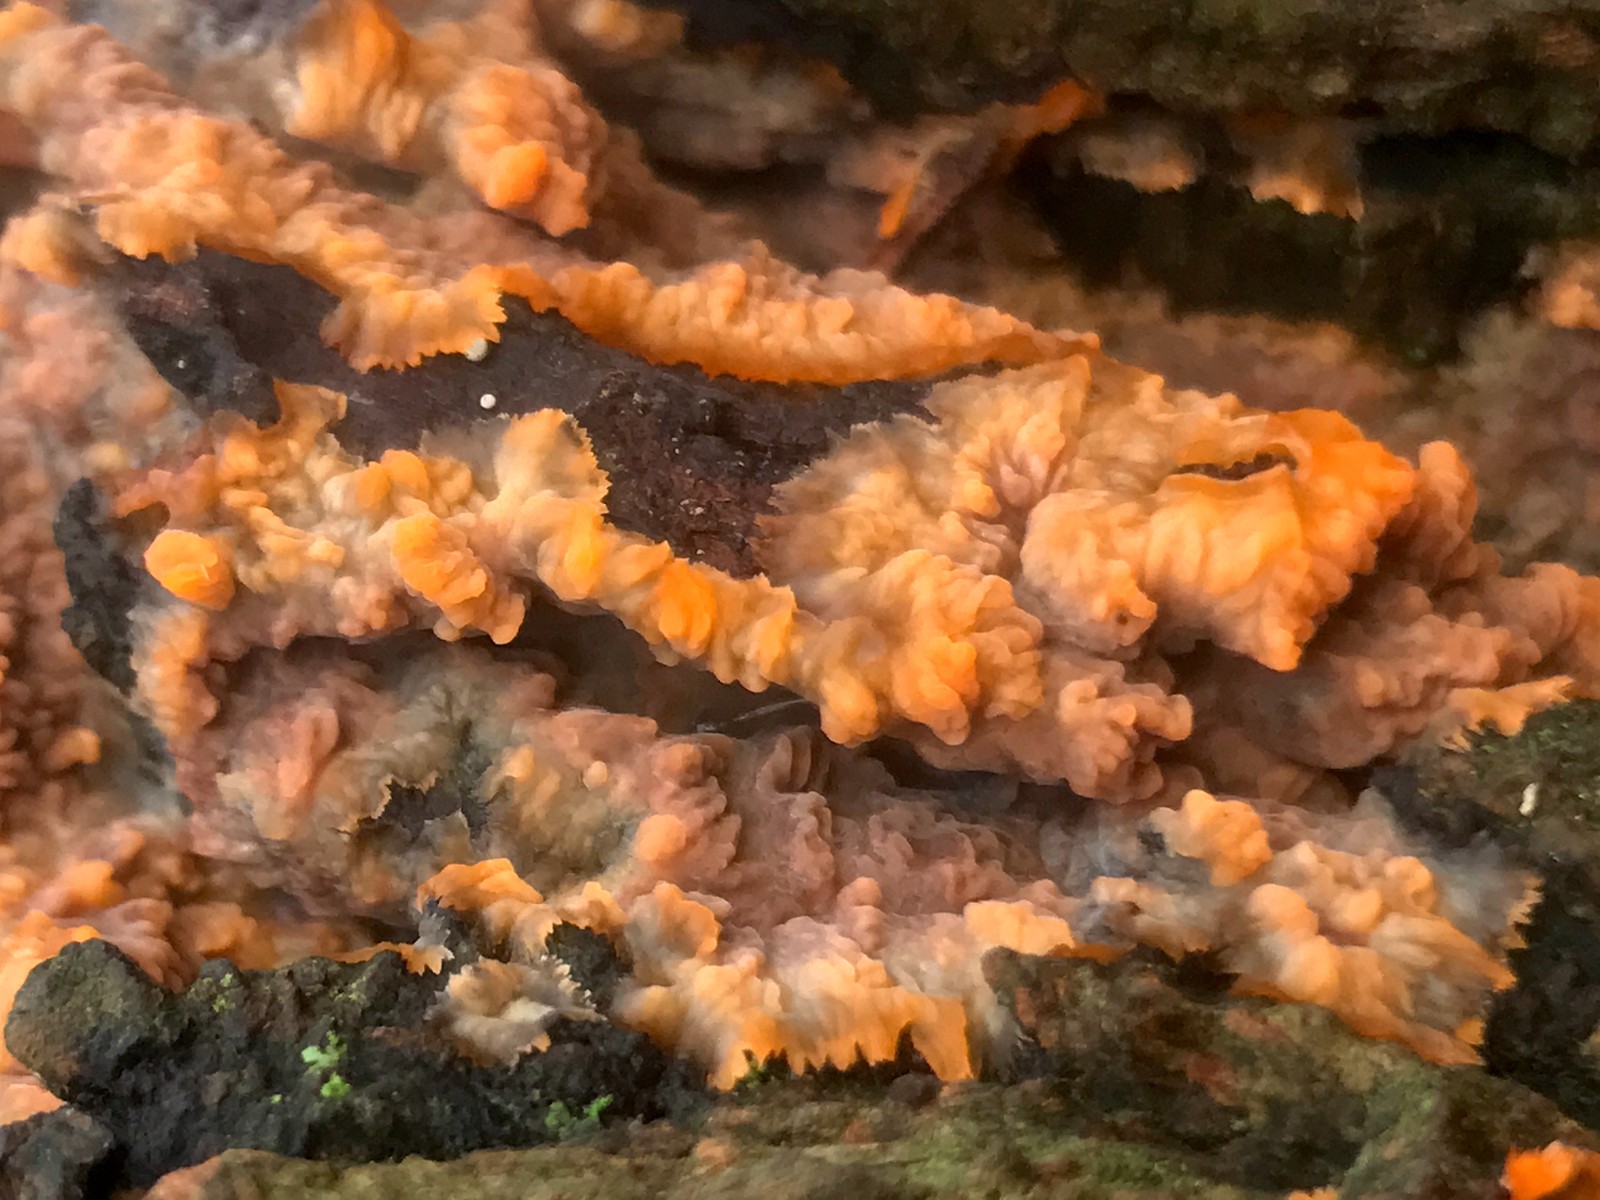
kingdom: Fungi
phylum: Basidiomycota
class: Agaricomycetes
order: Polyporales
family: Meruliaceae
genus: Phlebia
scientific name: Phlebia radiata
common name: stråle-åresvamp
